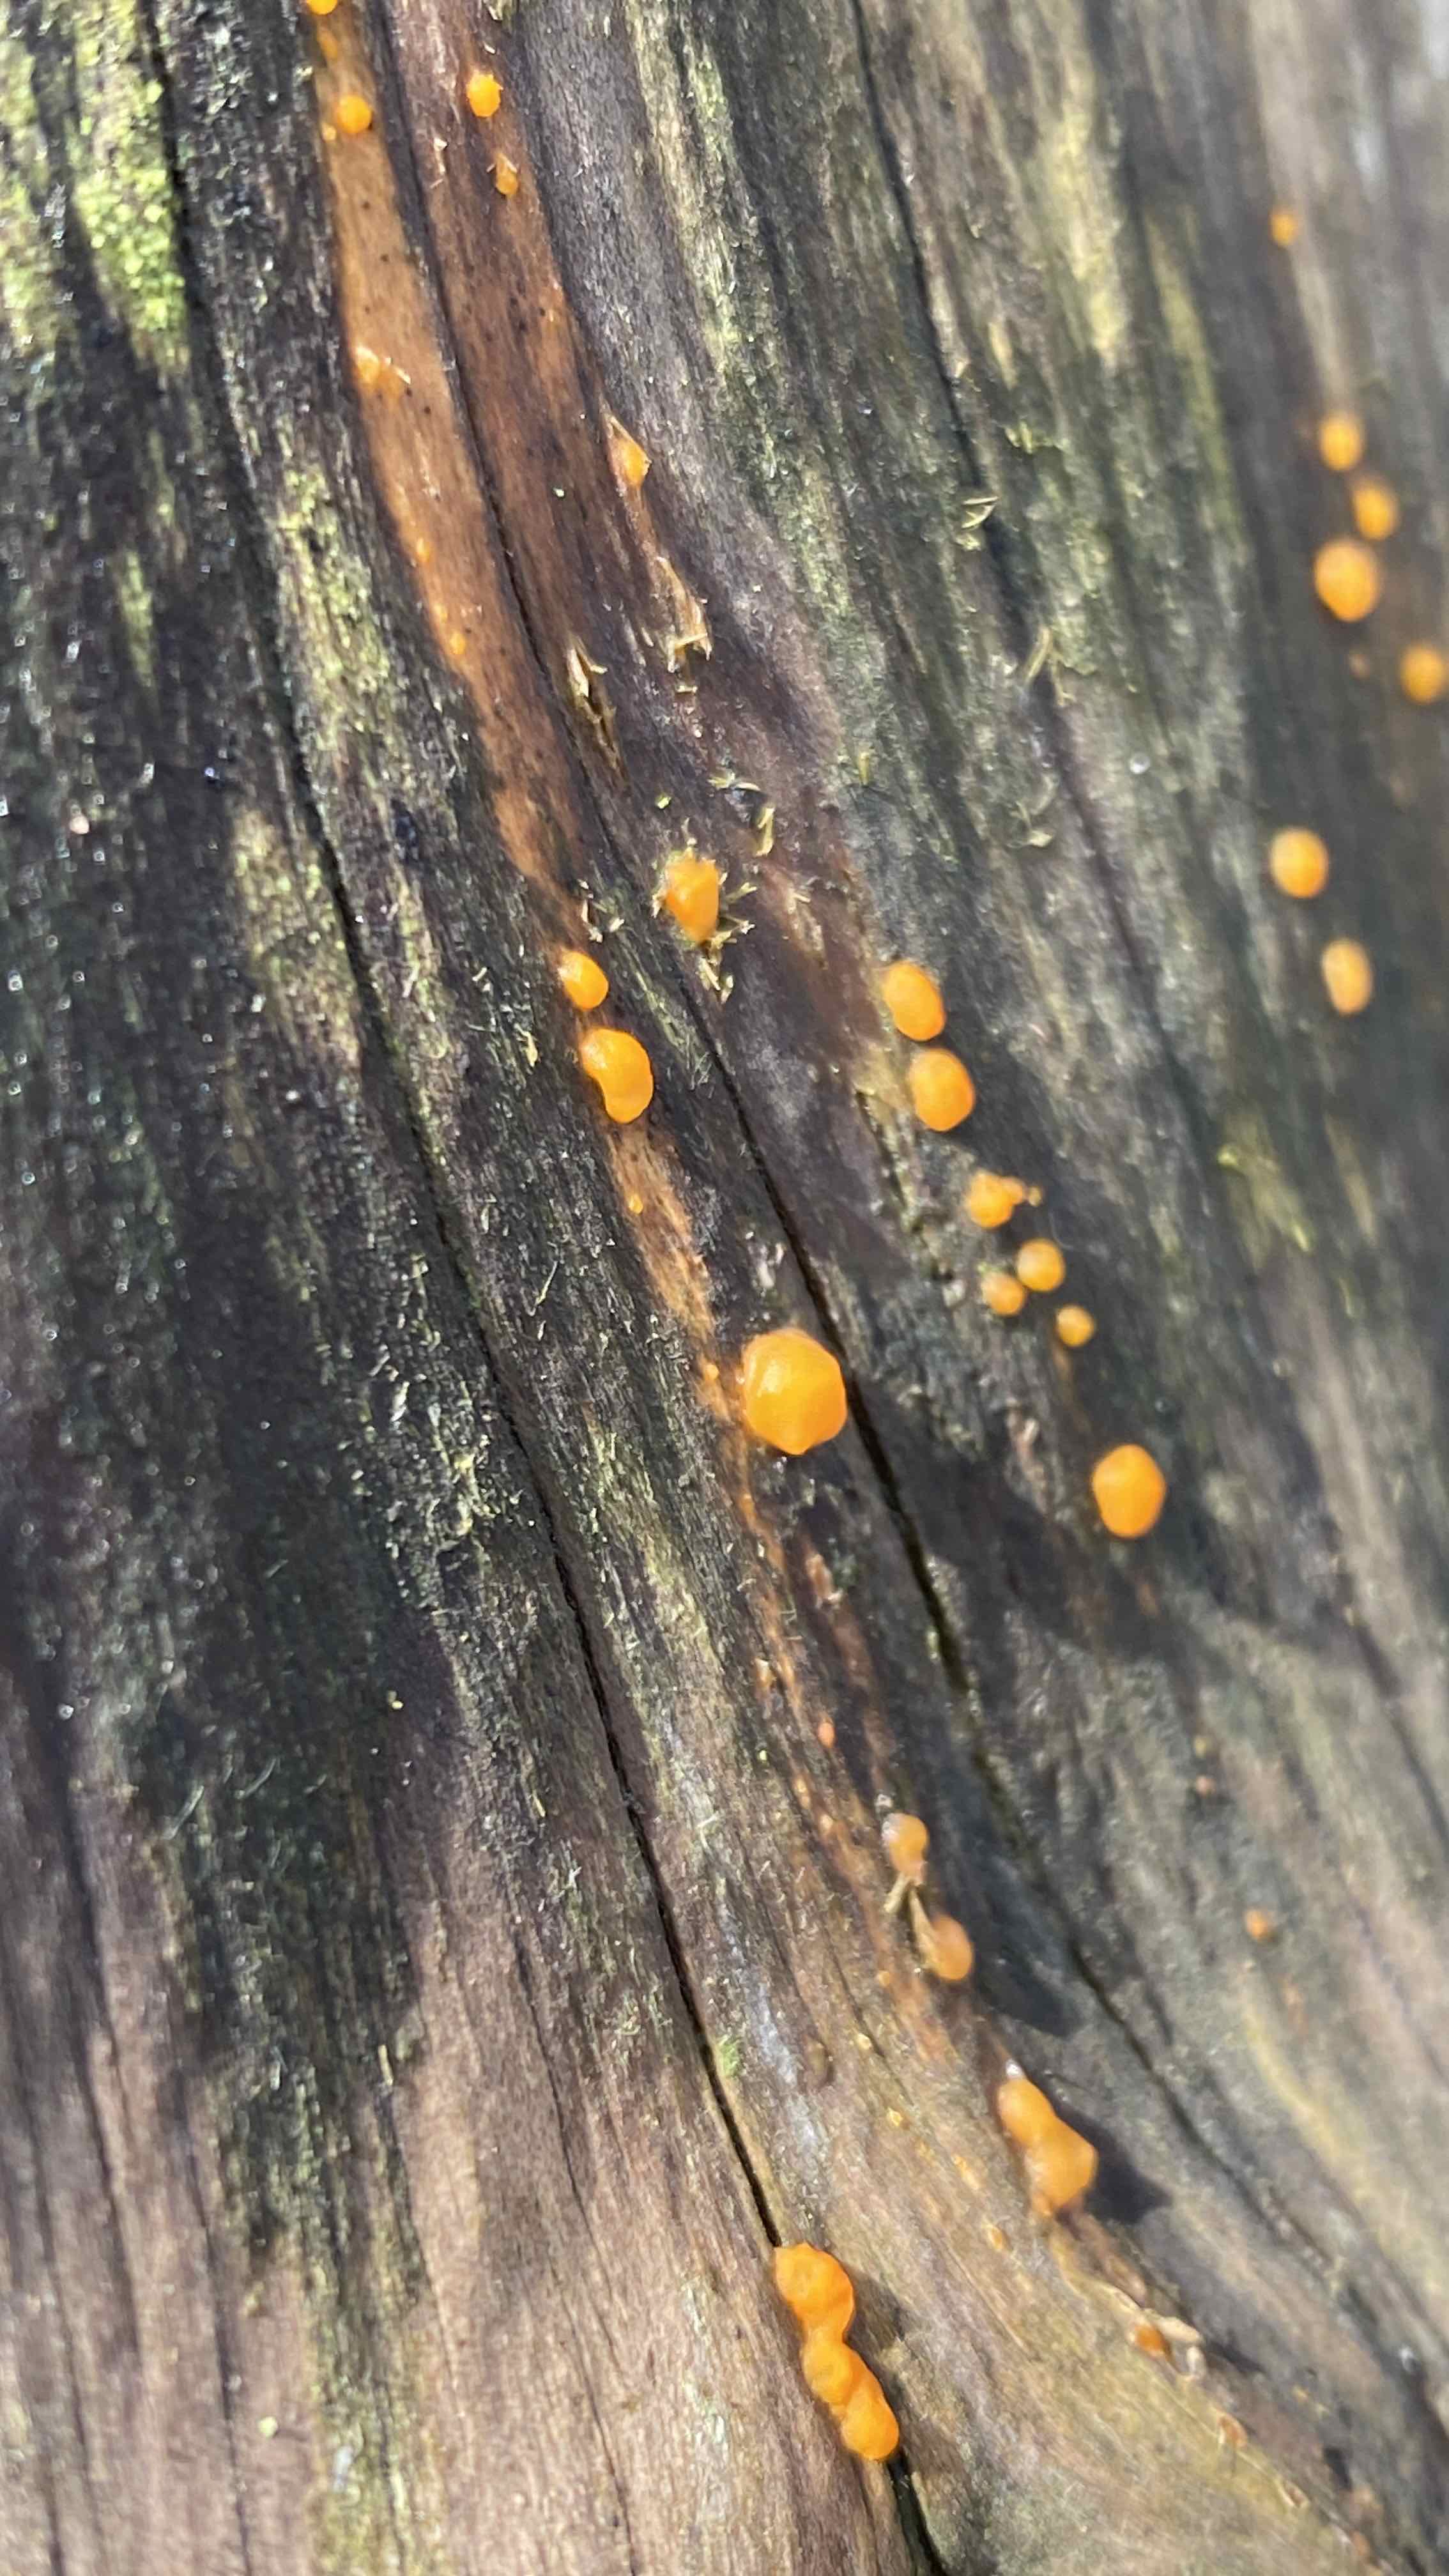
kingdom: Fungi
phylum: Basidiomycota
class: Dacrymycetes
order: Dacrymycetales
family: Dacrymycetaceae
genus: Dacrymyces
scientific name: Dacrymyces stillatus
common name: almindelig tåresvamp
